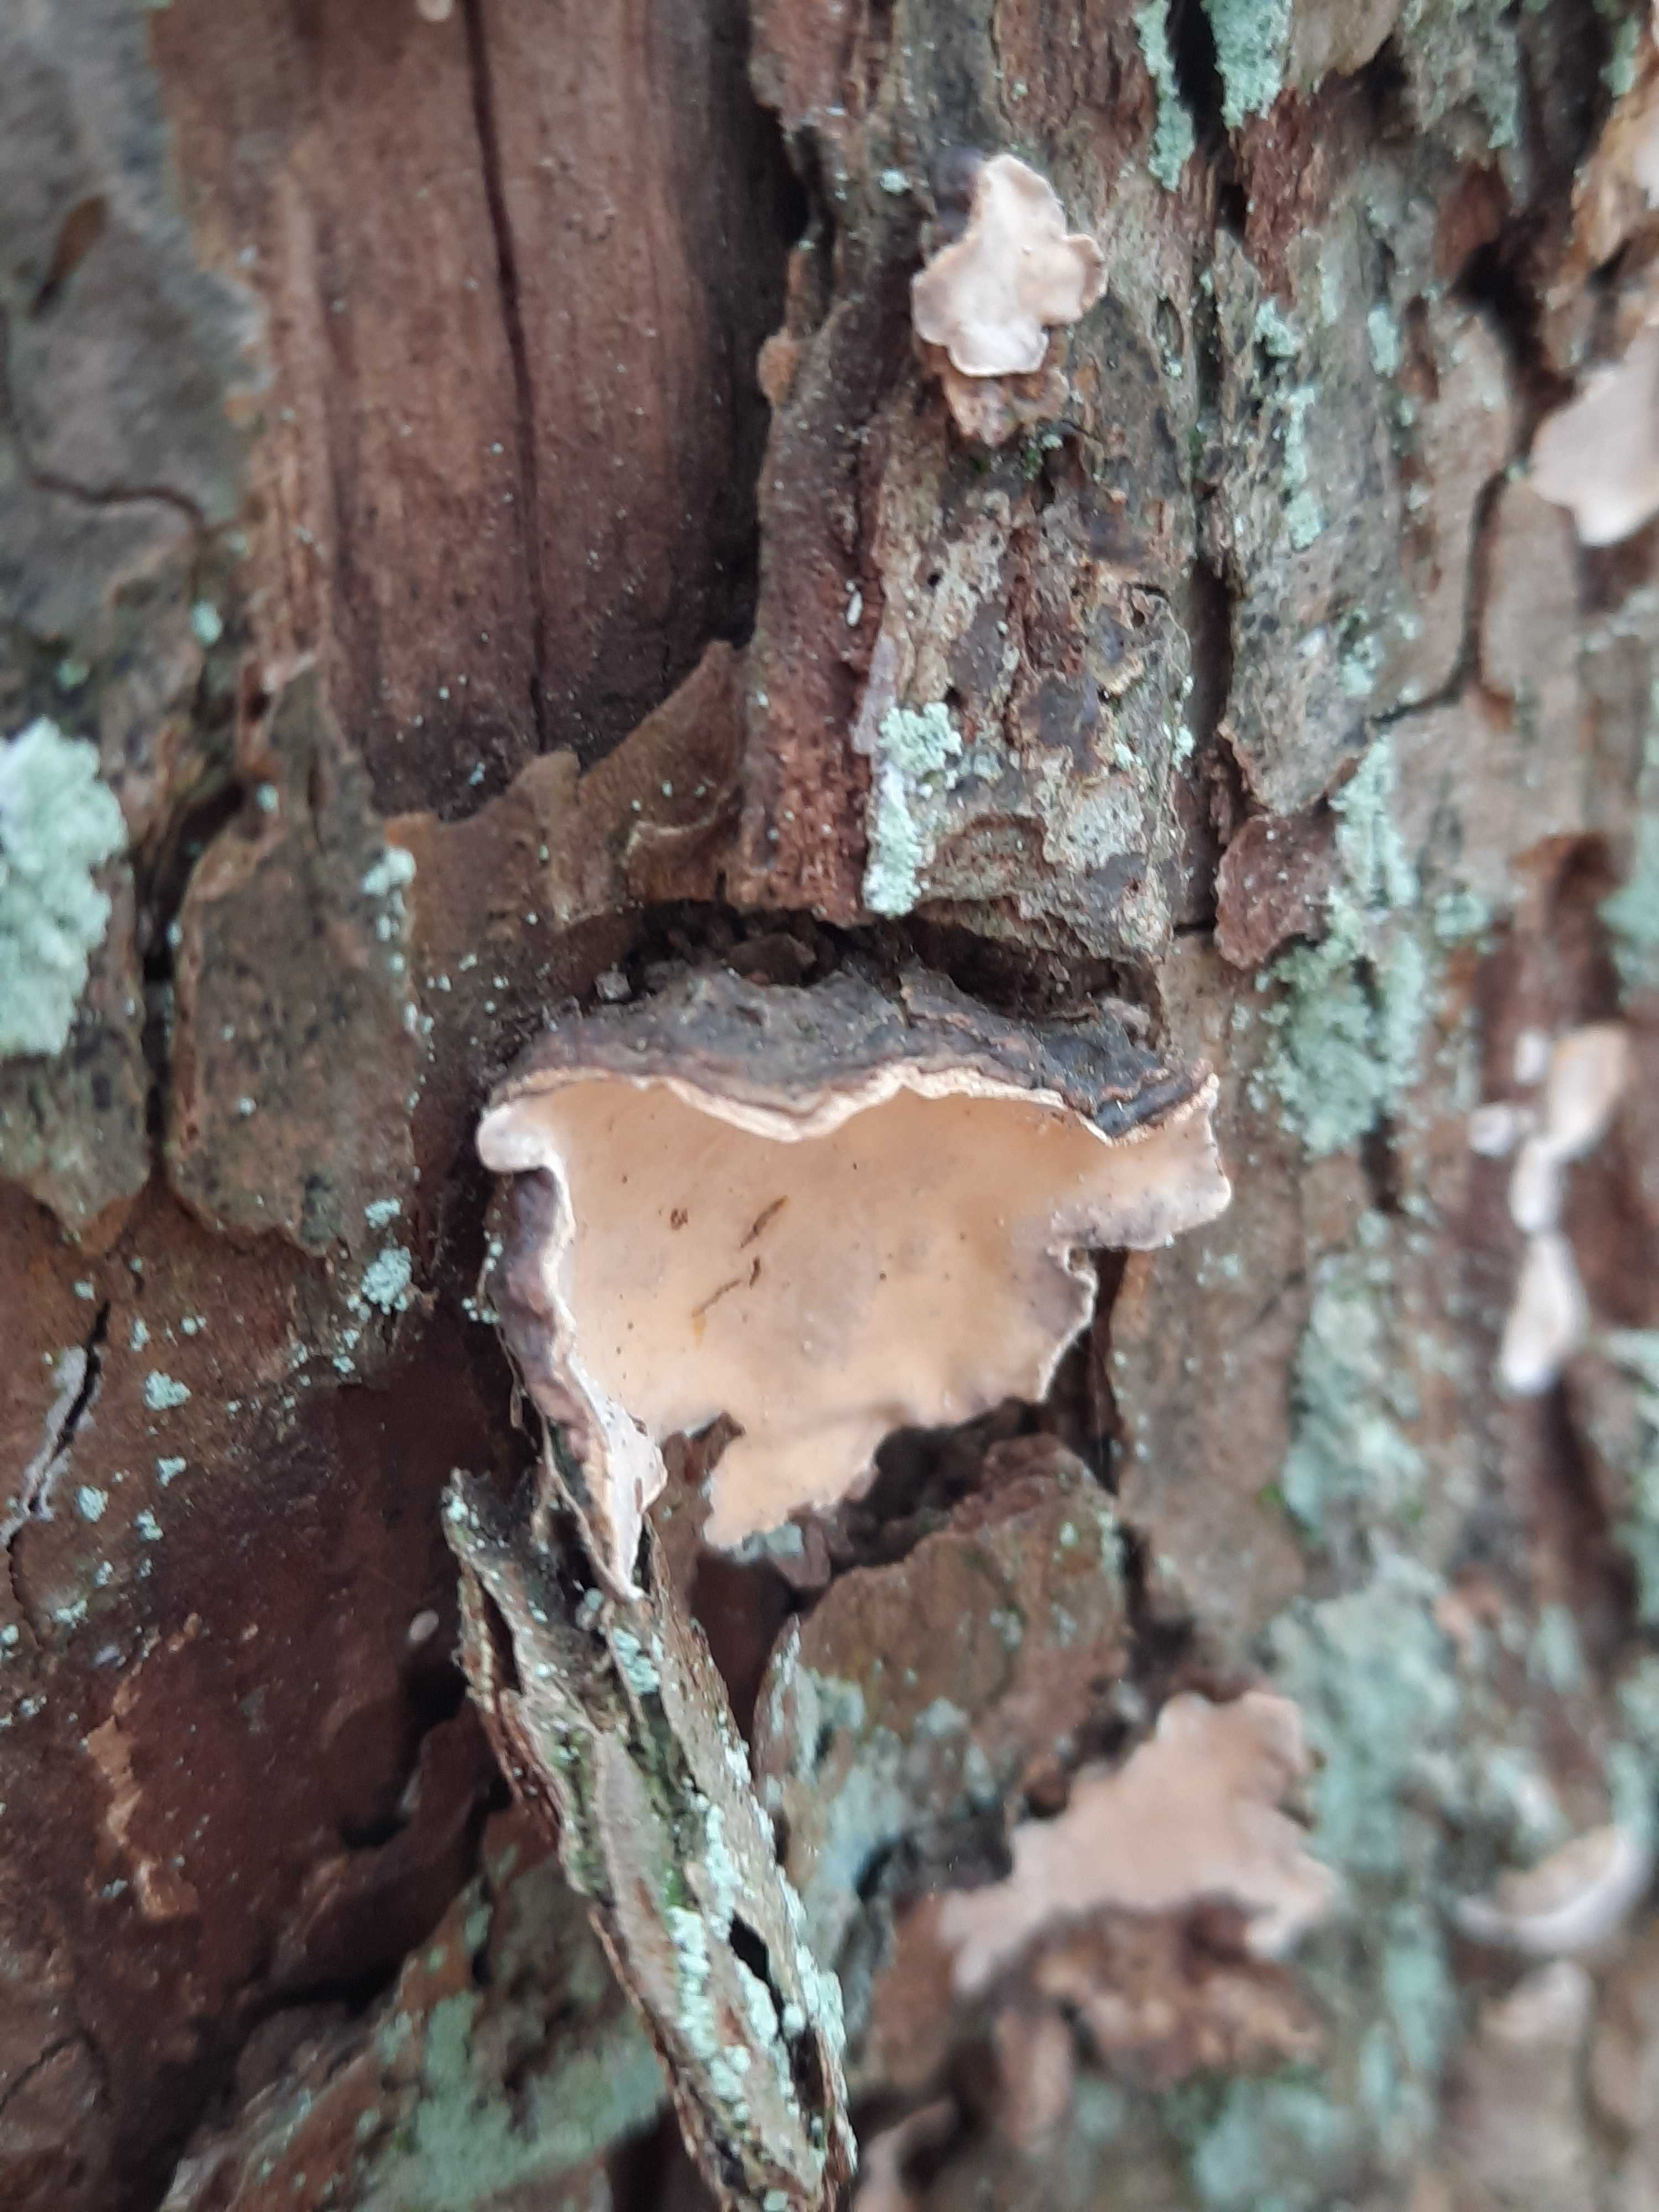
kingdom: Fungi
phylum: Basidiomycota
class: Agaricomycetes
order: Russulales
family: Stereaceae
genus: Stereum
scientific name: Stereum rugosum
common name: rynket lædersvamp
